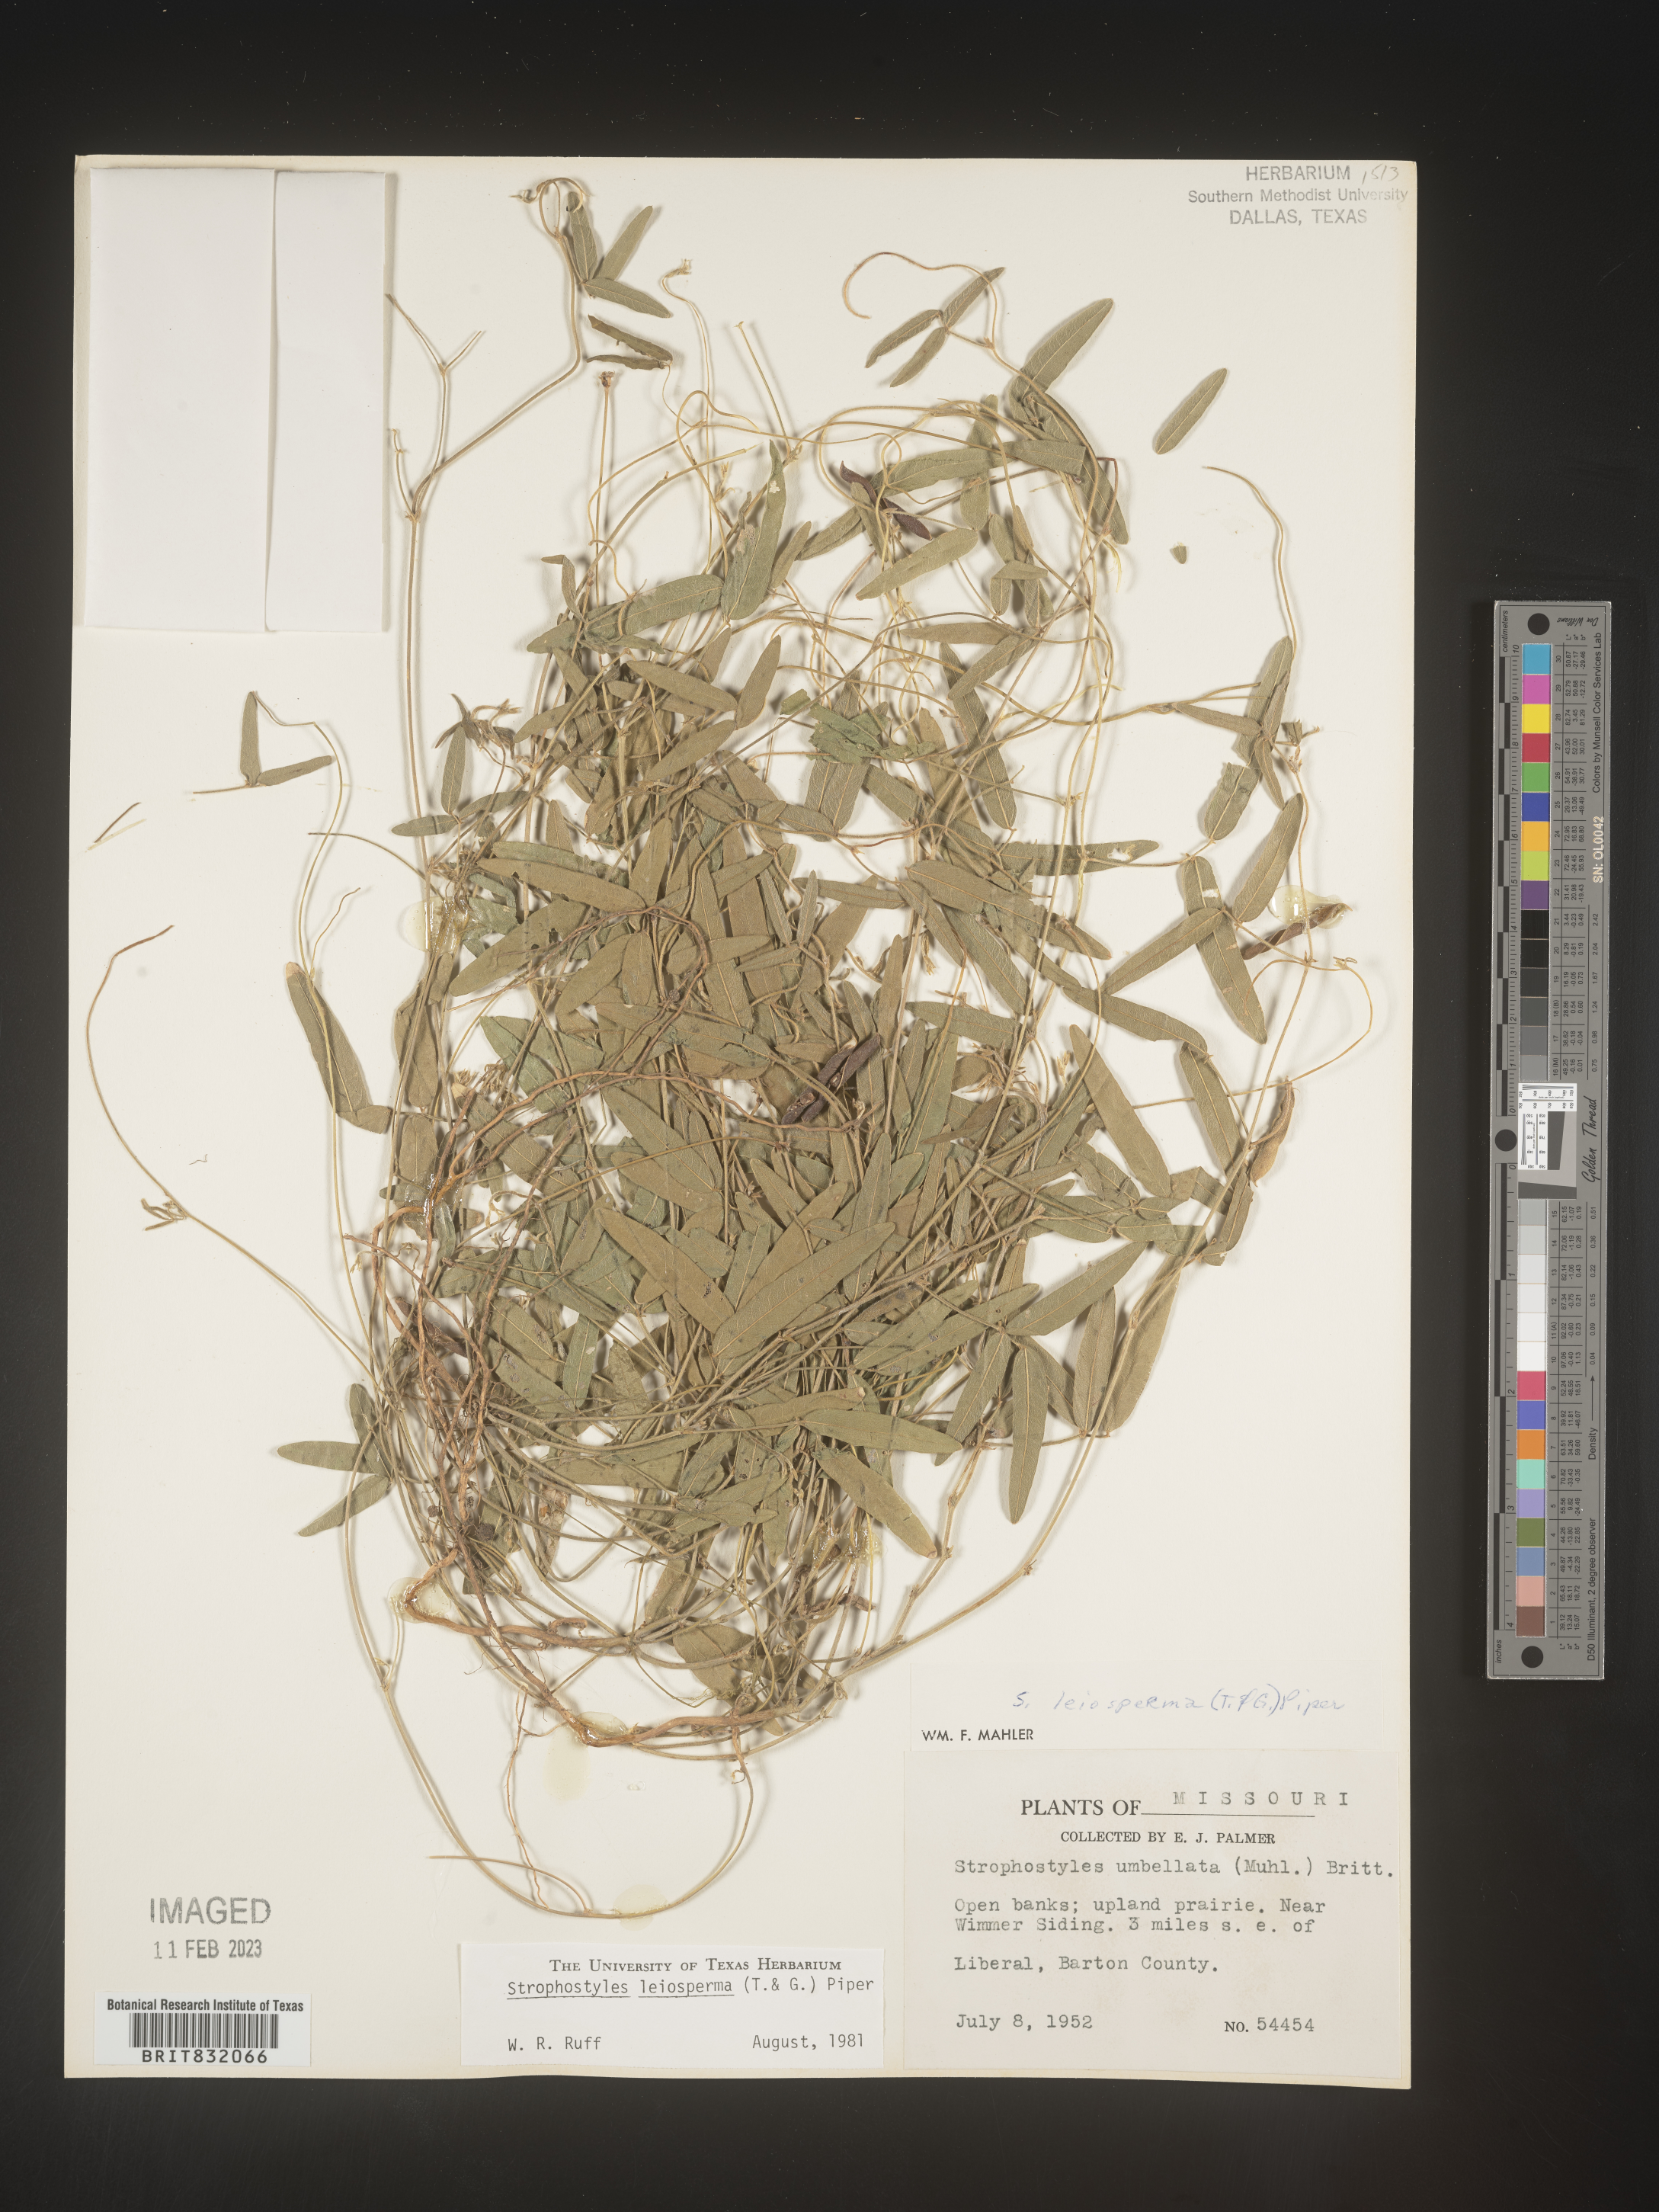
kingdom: Plantae
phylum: Tracheophyta
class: Magnoliopsida
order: Fabales
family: Fabaceae
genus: Strophostyles
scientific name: Strophostyles leiosperma
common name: Smooth-seed wild bean
